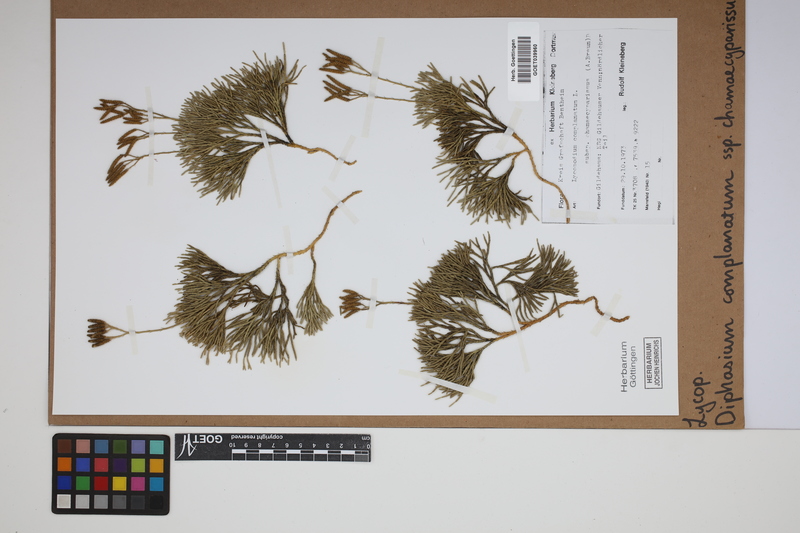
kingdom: Plantae
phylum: Tracheophyta
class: Lycopodiopsida
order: Lycopodiales
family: Lycopodiaceae
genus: Diphasiastrum
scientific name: Diphasiastrum tristachyum
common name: Blue ground-cedar
